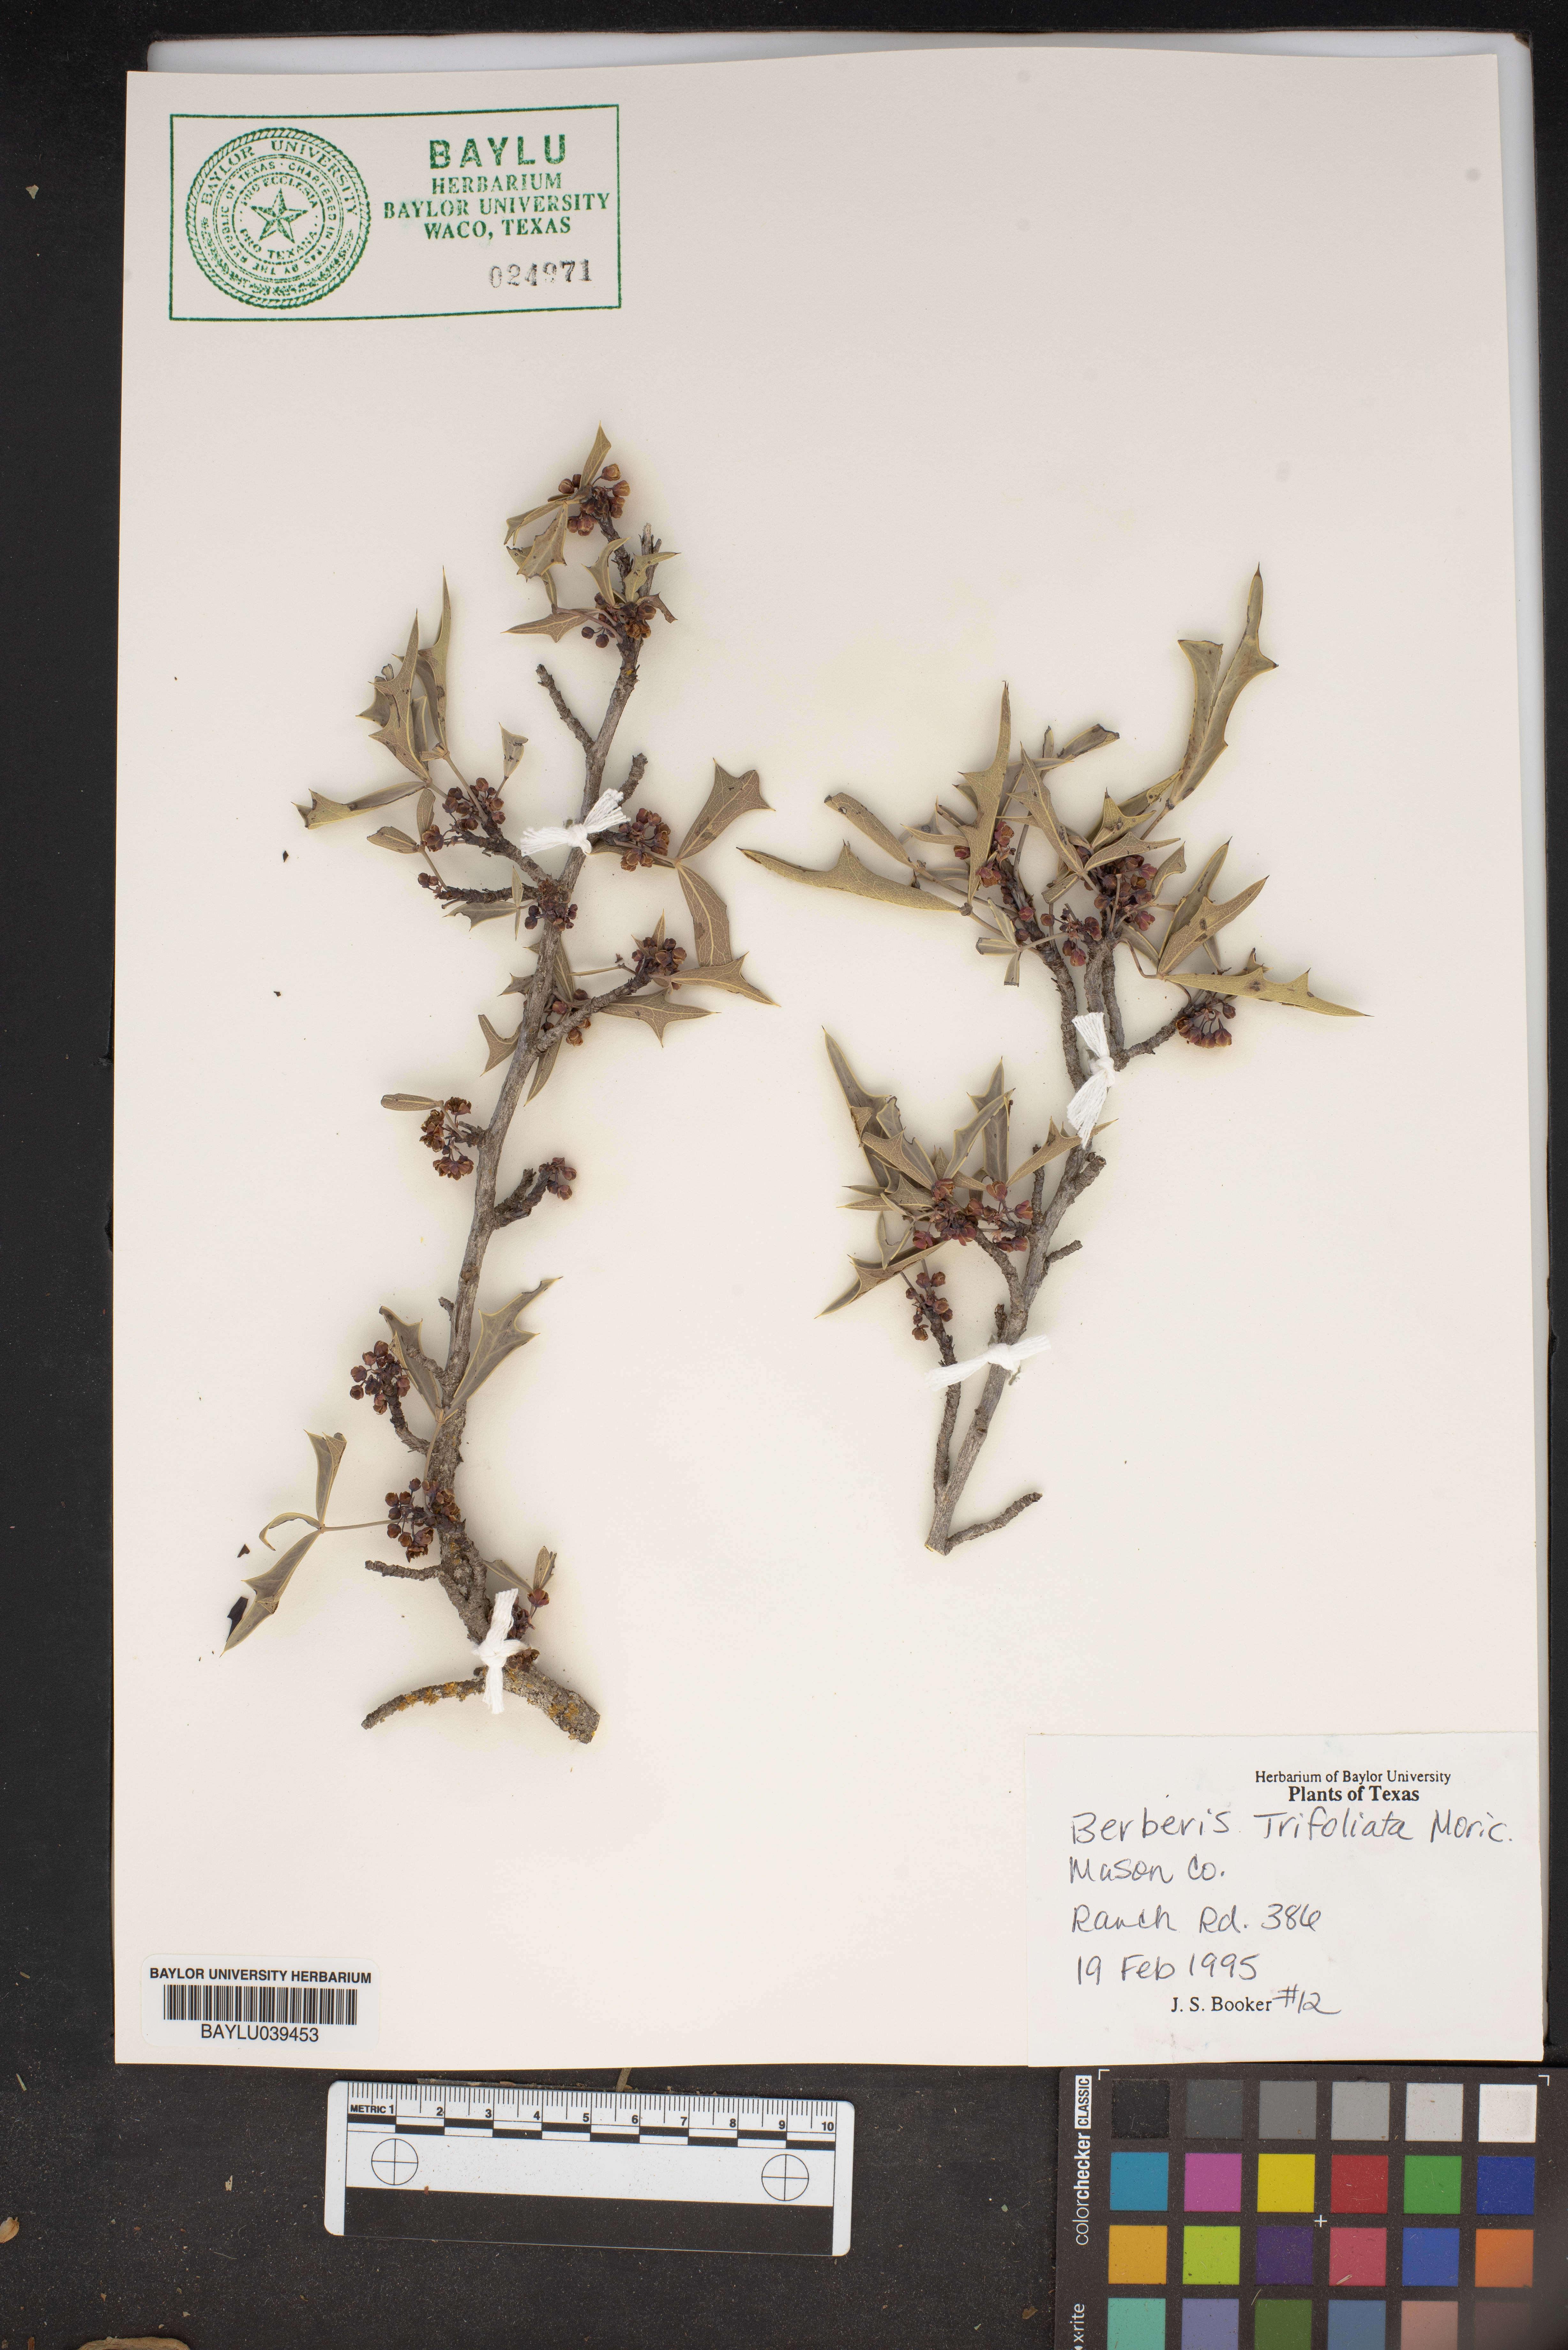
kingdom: Plantae
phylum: Tracheophyta
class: Magnoliopsida
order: Ranunculales
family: Berberidaceae
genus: Alloberberis
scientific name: Alloberberis fremontii
